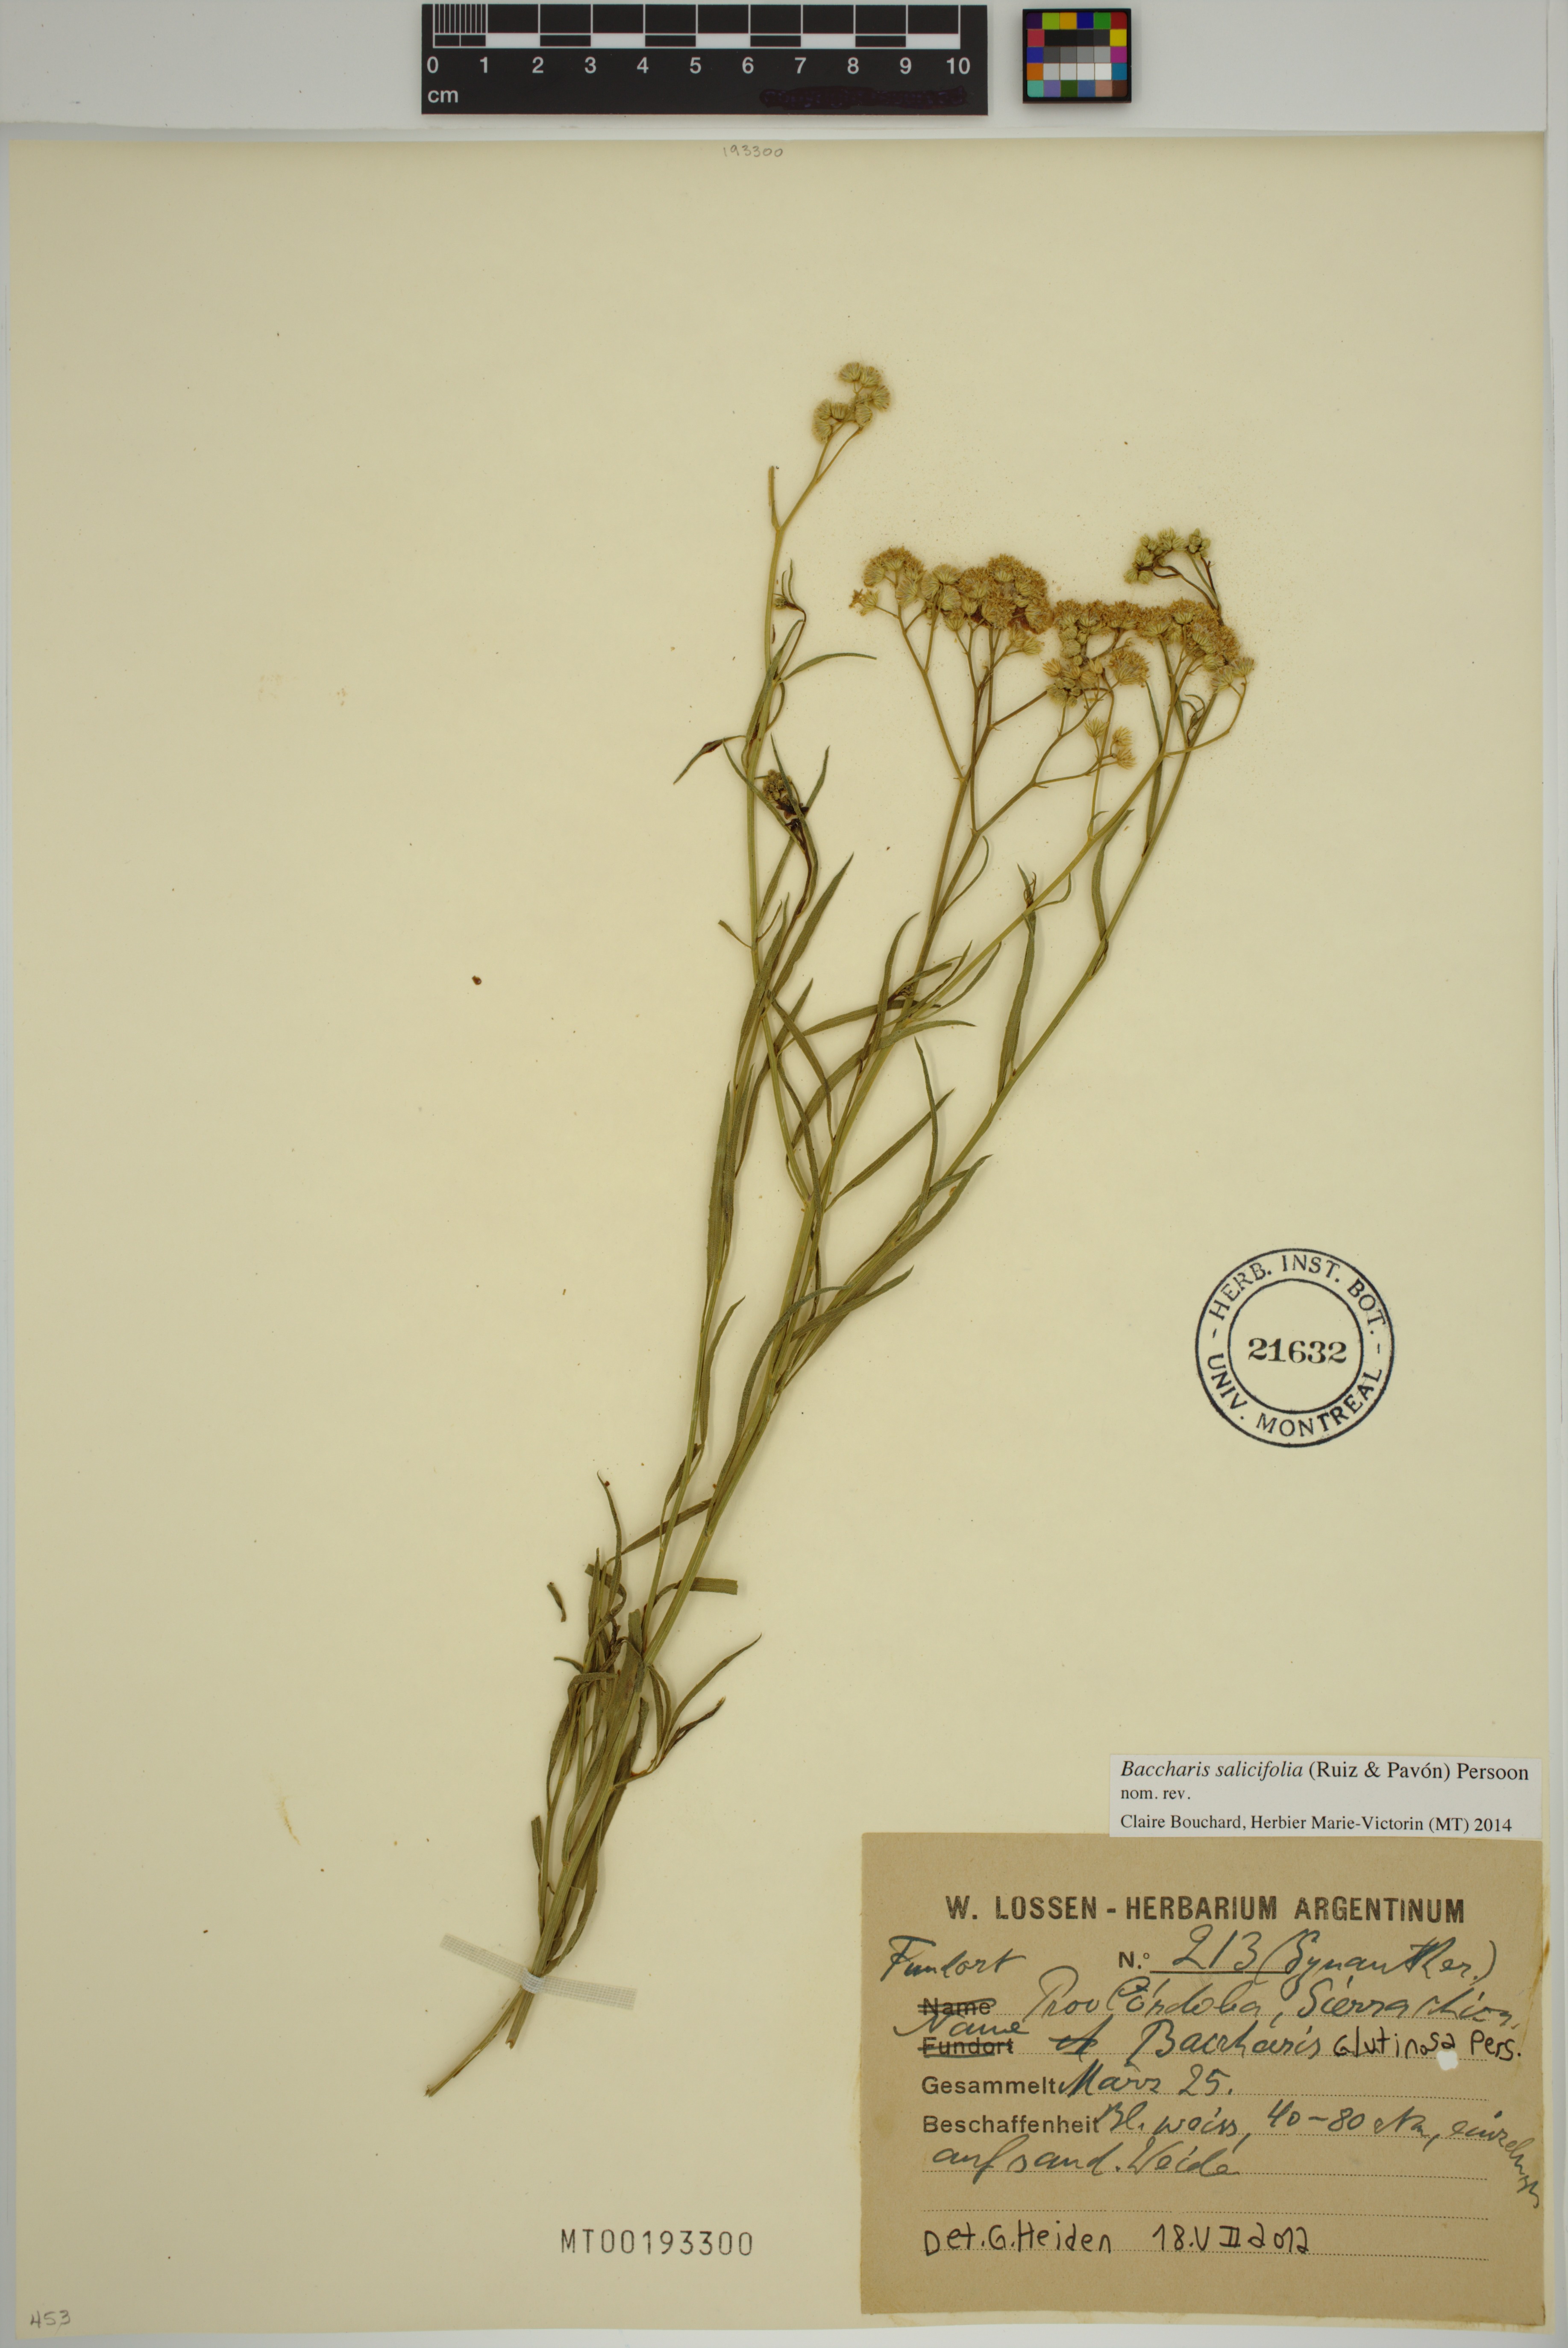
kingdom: Plantae
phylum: Tracheophyta
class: Magnoliopsida
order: Asterales
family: Asteraceae
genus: Baccharis
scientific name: Baccharis glutinosa
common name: Saltmarsh baccharis
